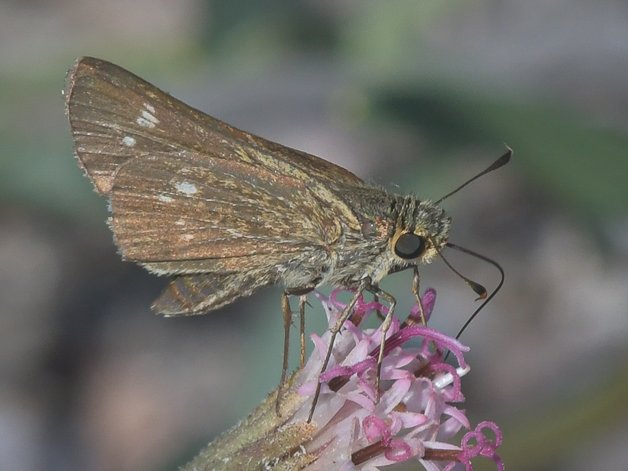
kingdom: Animalia
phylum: Arthropoda
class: Insecta
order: Lepidoptera
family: Hesperiidae
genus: Panoquina
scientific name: Panoquina
